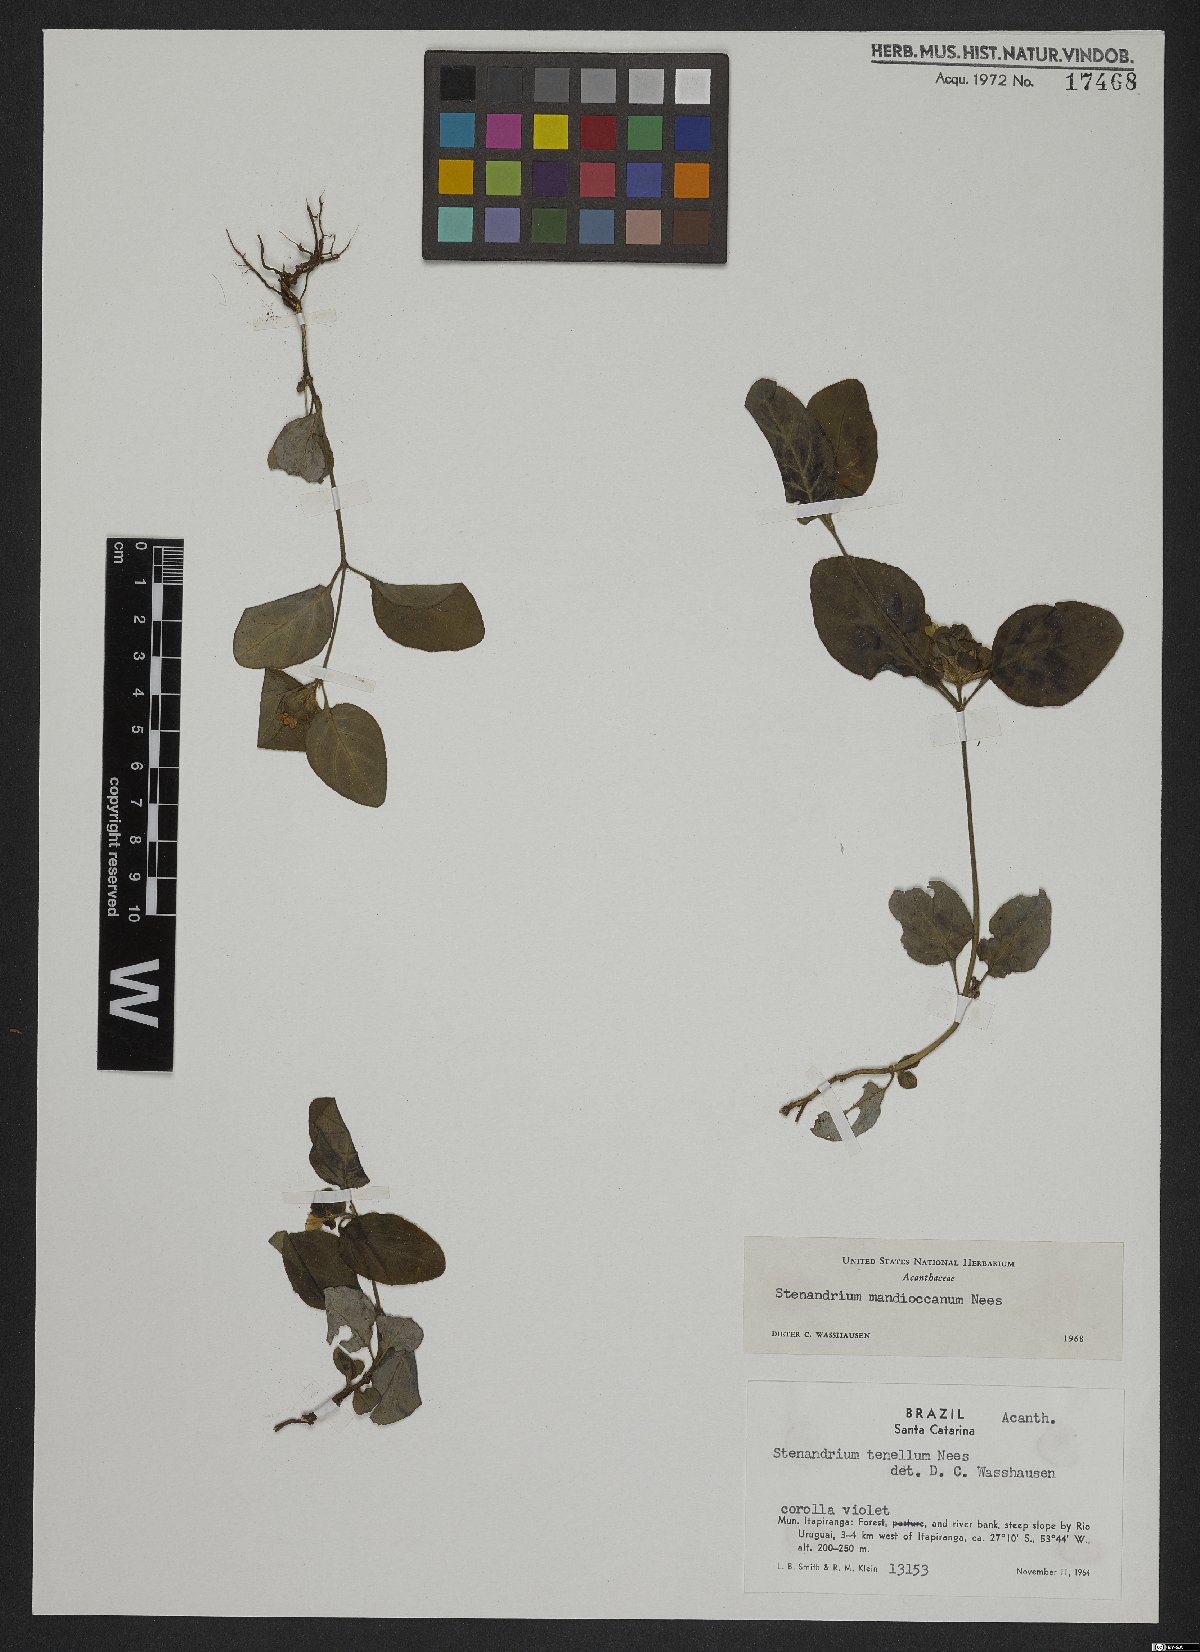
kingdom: Plantae
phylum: Tracheophyta
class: Magnoliopsida
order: Lamiales
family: Acanthaceae
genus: Stenandrium
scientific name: Stenandrium mandioccanum
